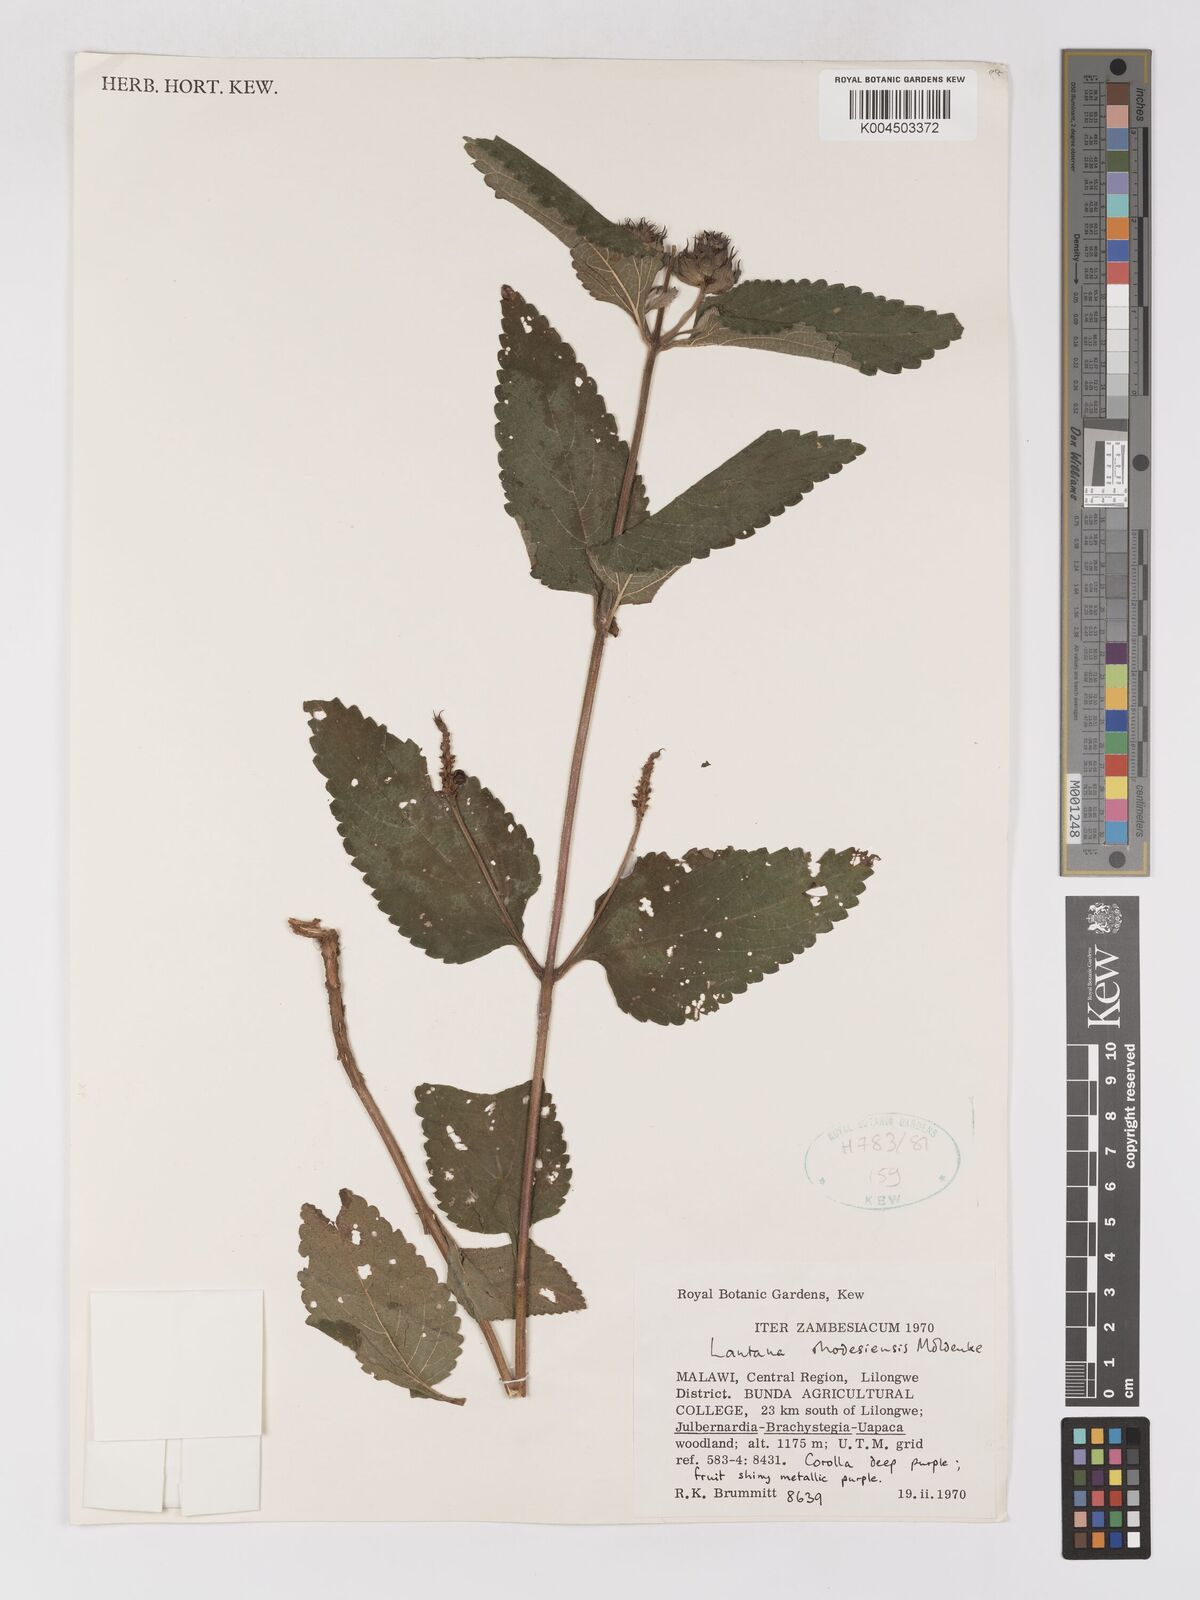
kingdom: Plantae
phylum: Tracheophyta
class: Magnoliopsida
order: Lamiales
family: Verbenaceae
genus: Lantana
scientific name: Lantana ukambensis
